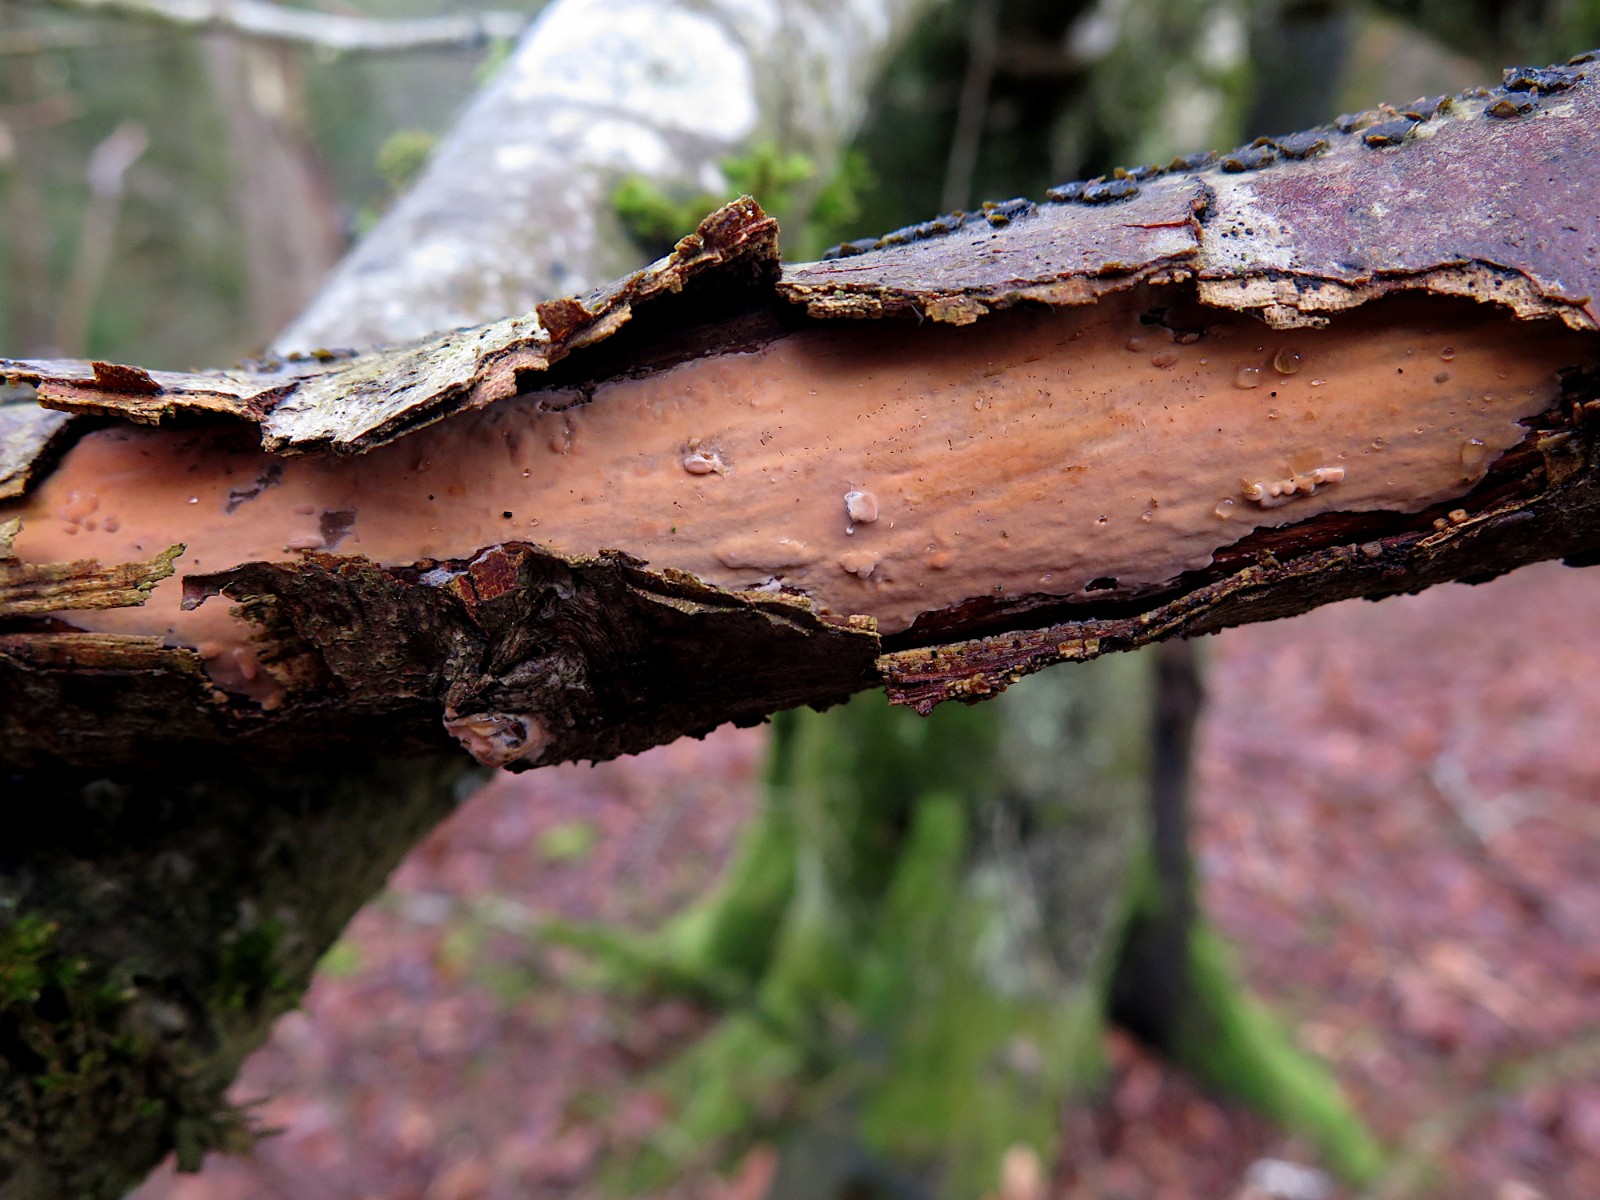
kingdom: Fungi
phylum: Basidiomycota
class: Agaricomycetes
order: Corticiales
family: Vuilleminiaceae
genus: Vuilleminia
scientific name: Vuilleminia comedens
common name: almindelig barksprænger
